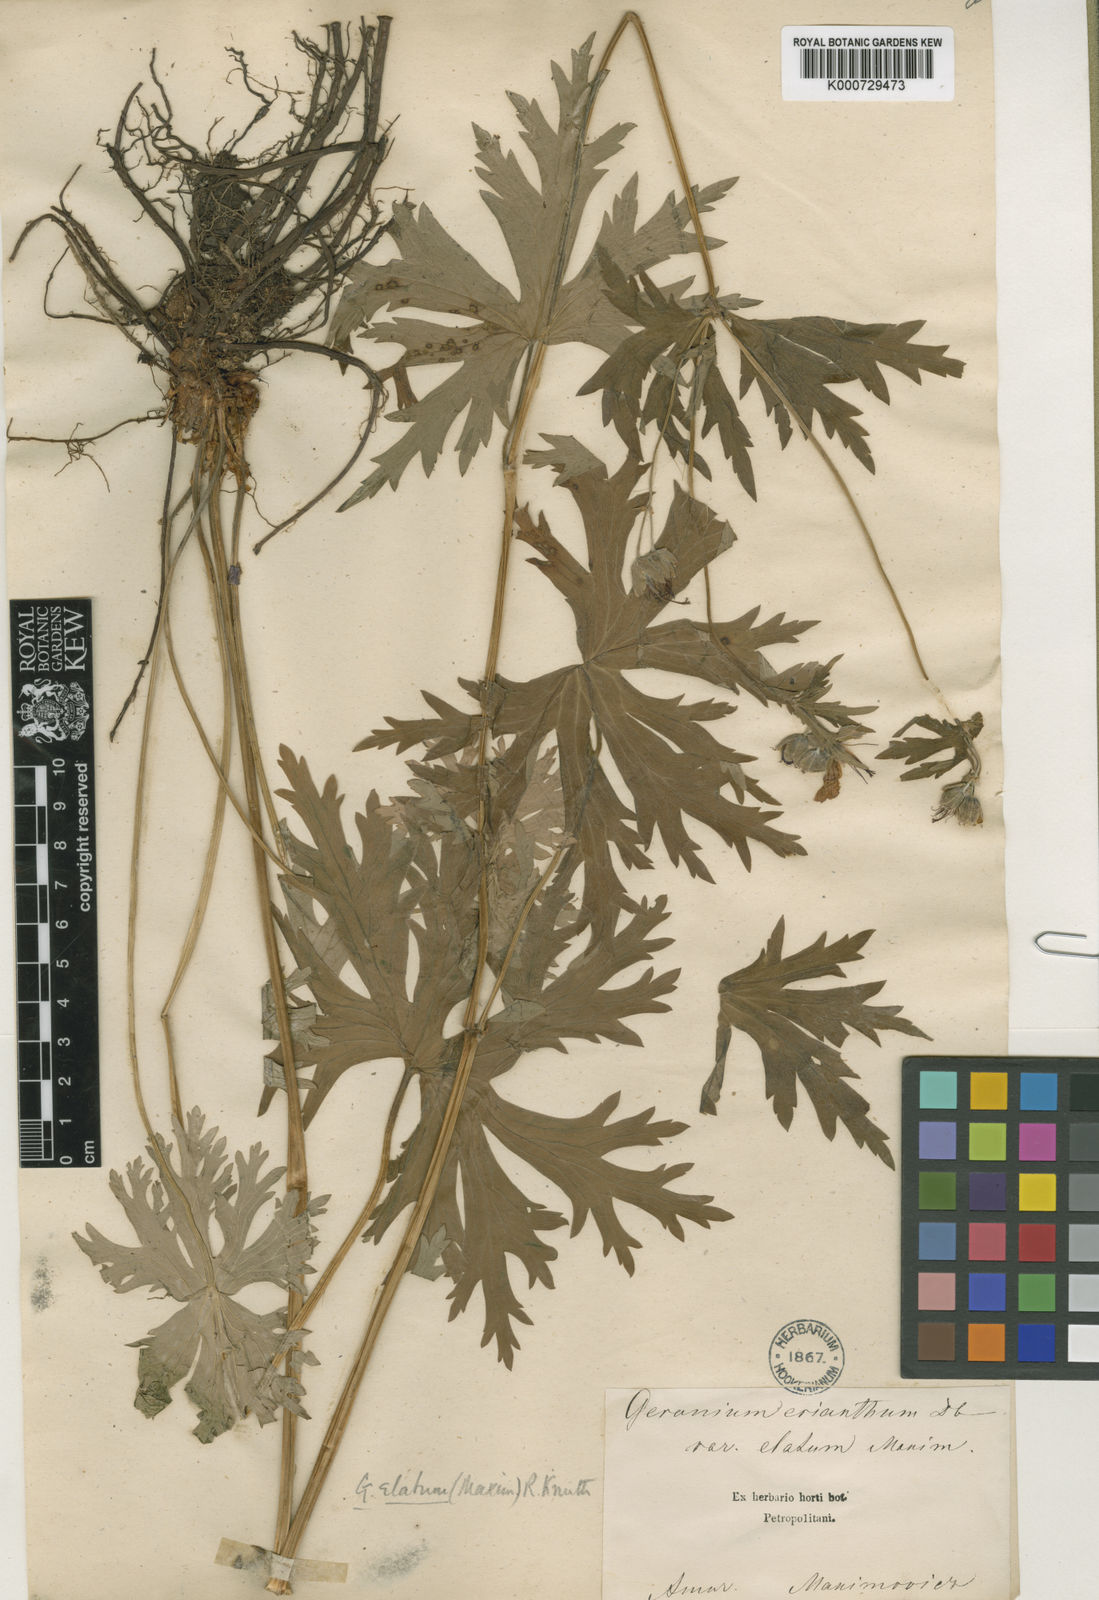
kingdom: Plantae
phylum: Tracheophyta
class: Magnoliopsida
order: Geraniales
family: Geraniaceae
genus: Geranium
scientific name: Geranium
